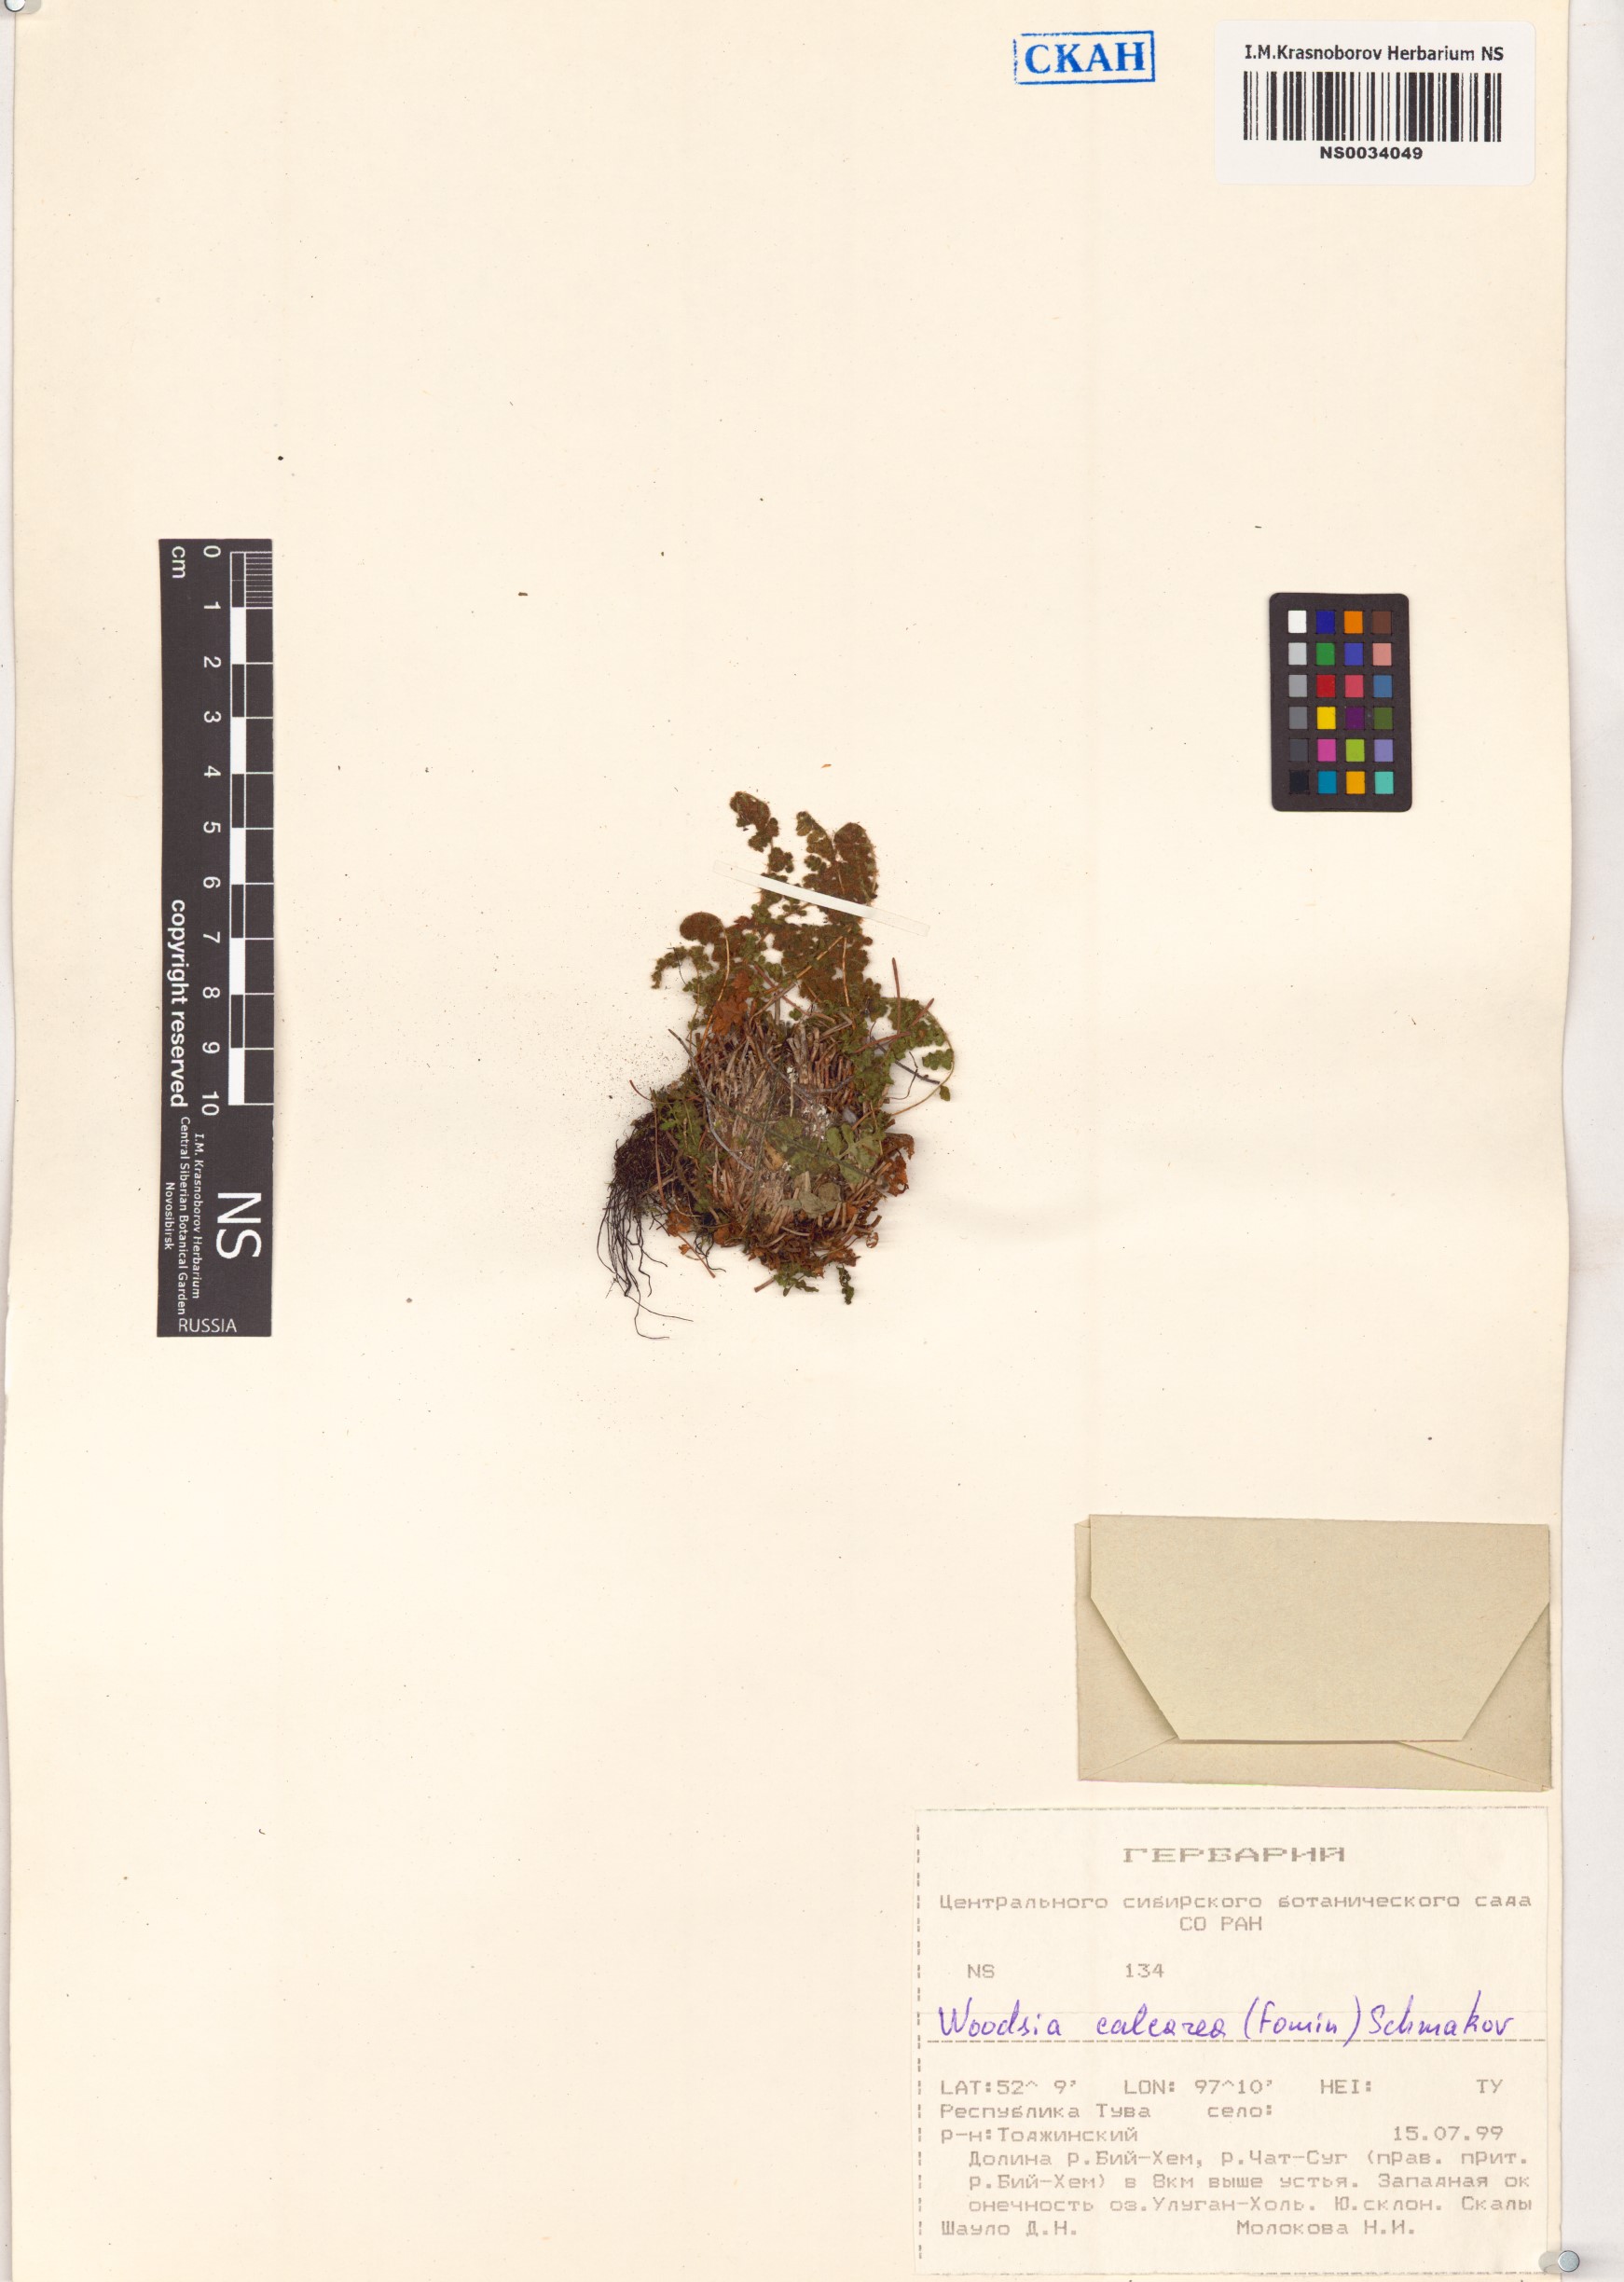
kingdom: Plantae
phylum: Tracheophyta
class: Polypodiopsida
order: Polypodiales
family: Woodsiaceae
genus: Woodsia
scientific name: Woodsia calcarea
